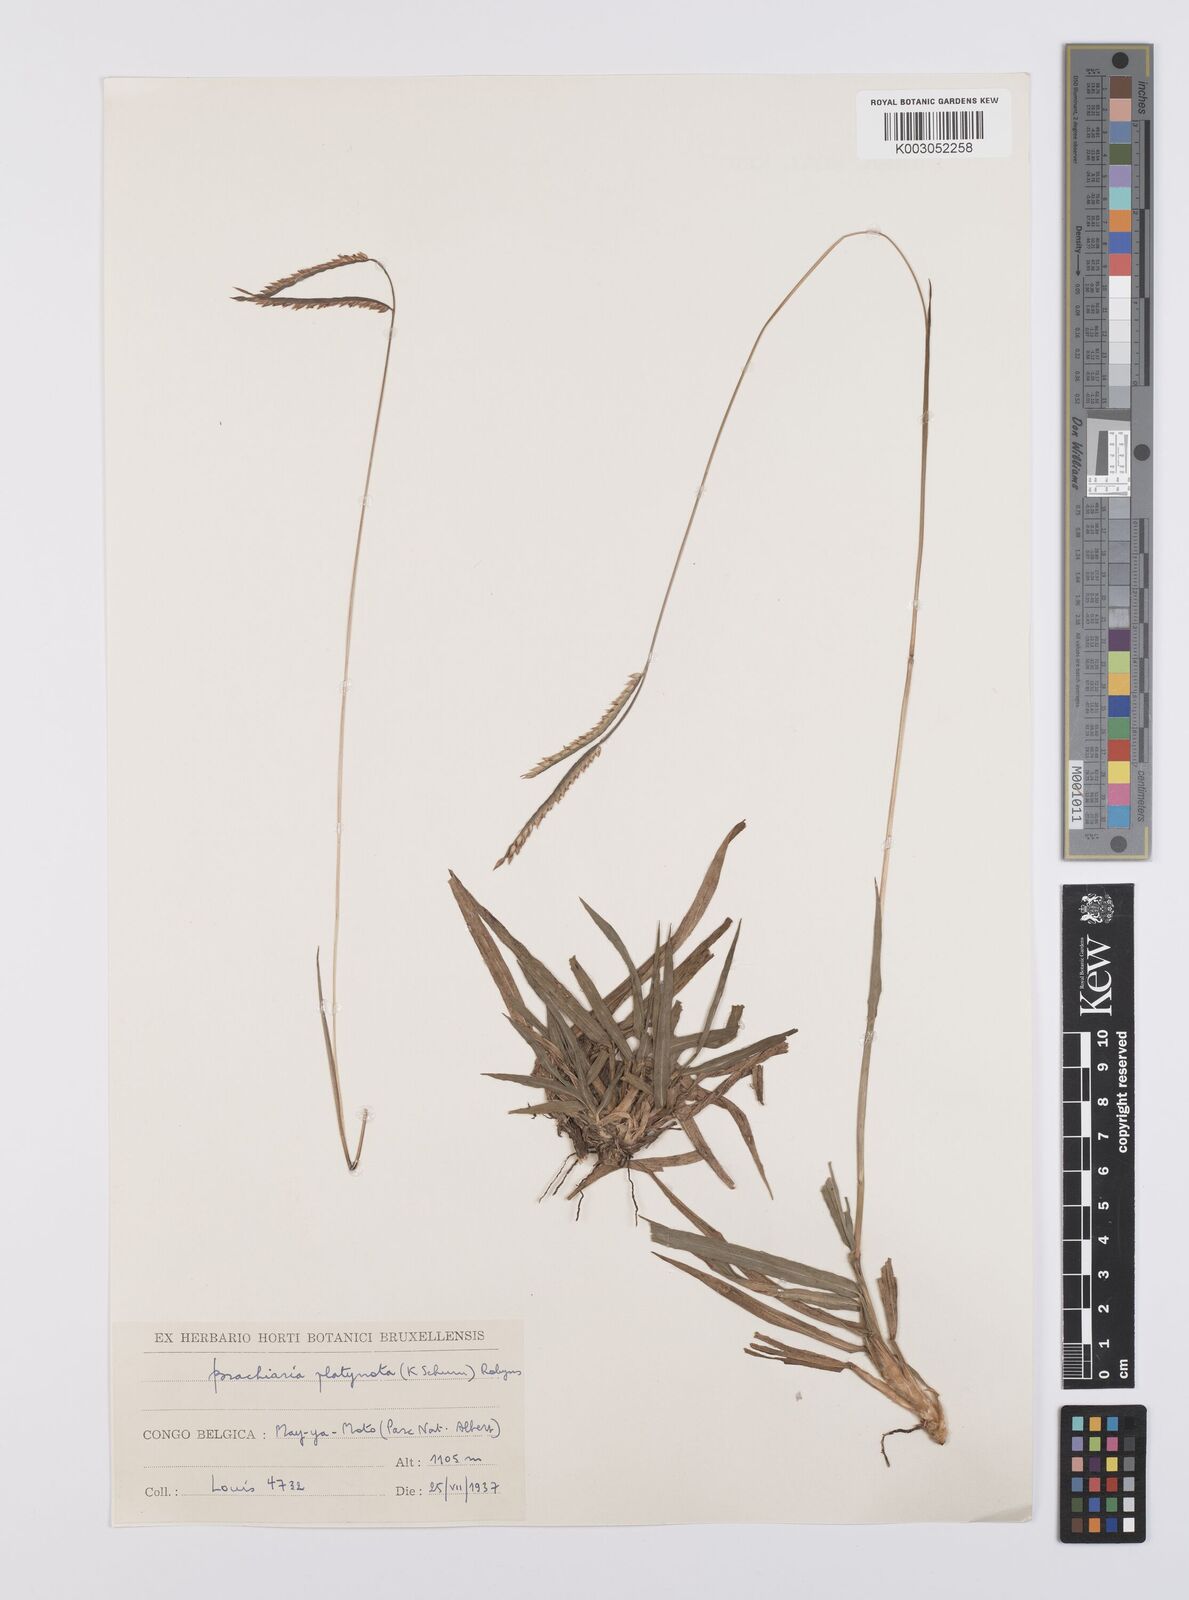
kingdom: Plantae
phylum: Tracheophyta
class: Liliopsida
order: Poales
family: Poaceae
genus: Urochloa
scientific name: Urochloa platynota
